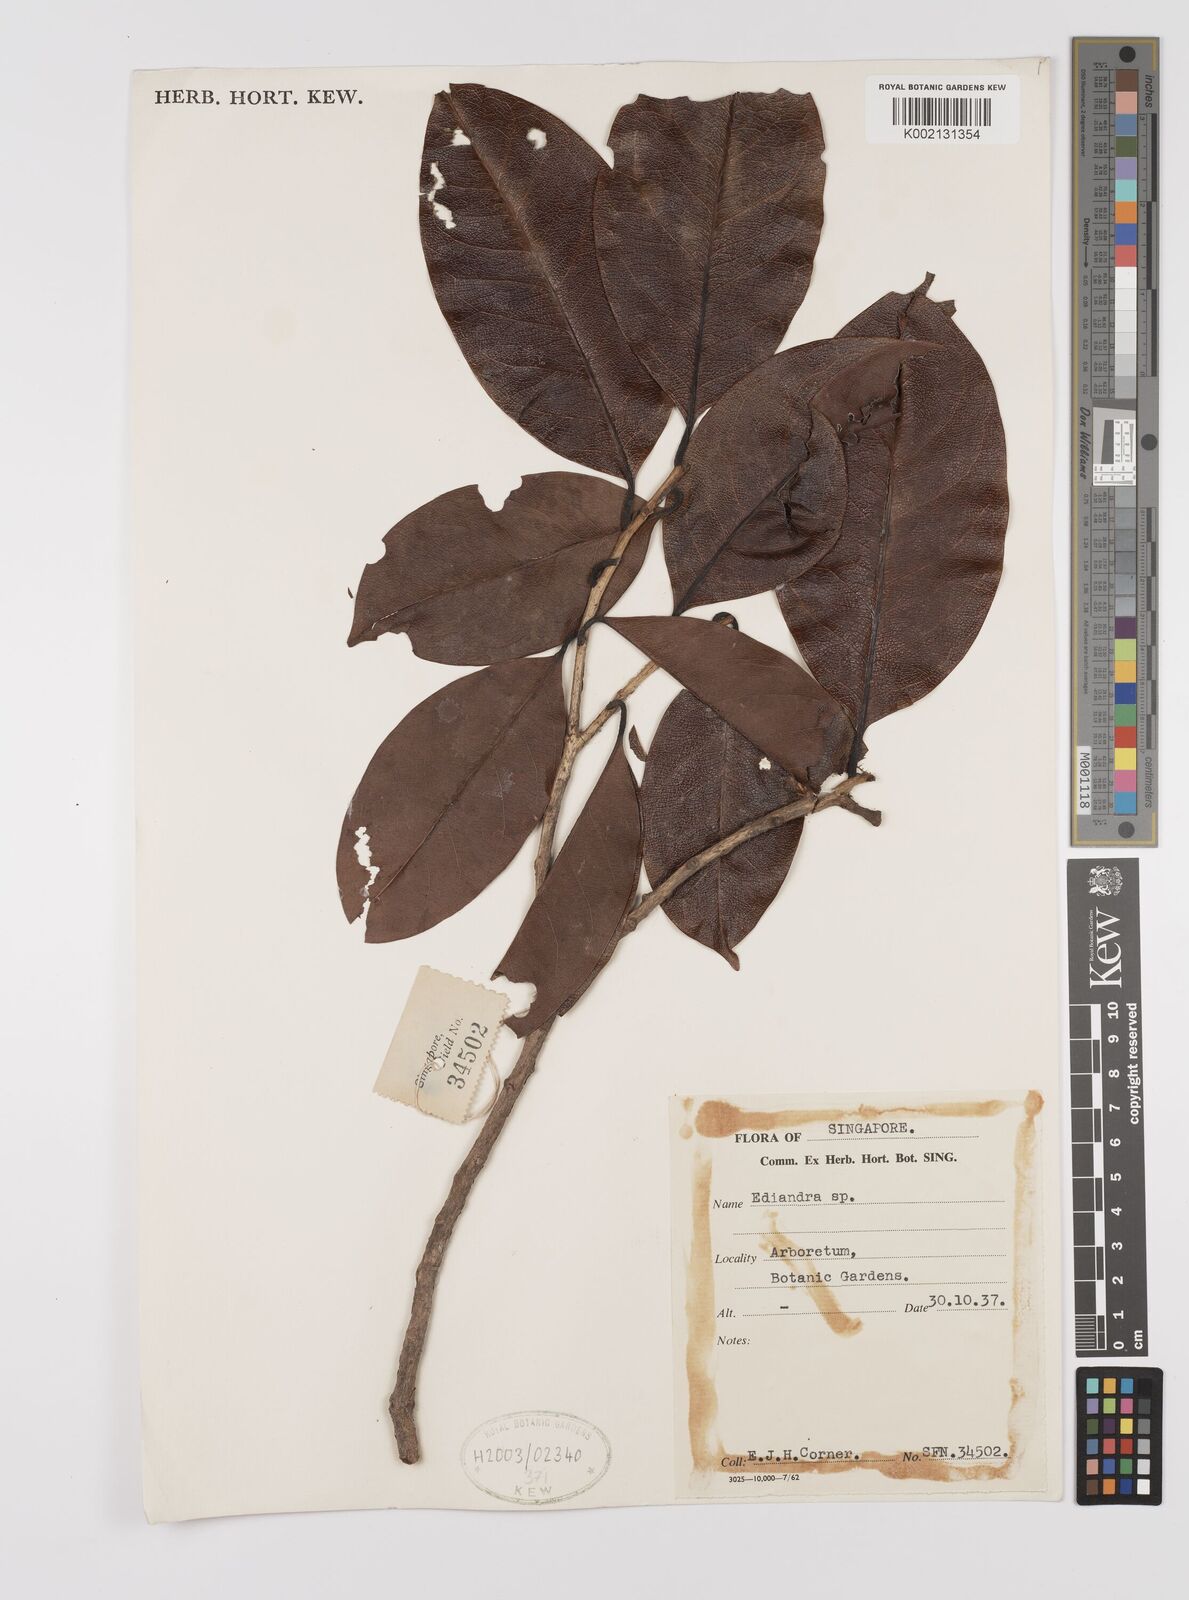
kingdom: Plantae
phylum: Tracheophyta
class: Magnoliopsida
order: Laurales
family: Lauraceae
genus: Endiandra
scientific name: Endiandra
